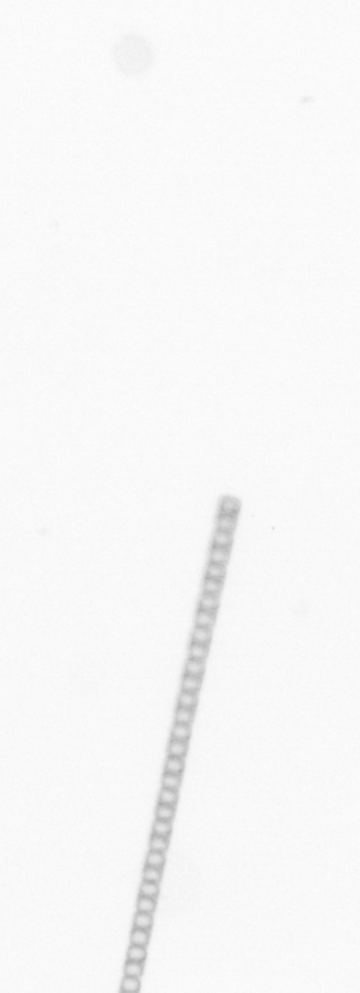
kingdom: Chromista
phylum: Ochrophyta
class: Bacillariophyceae
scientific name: Bacillariophyceae
